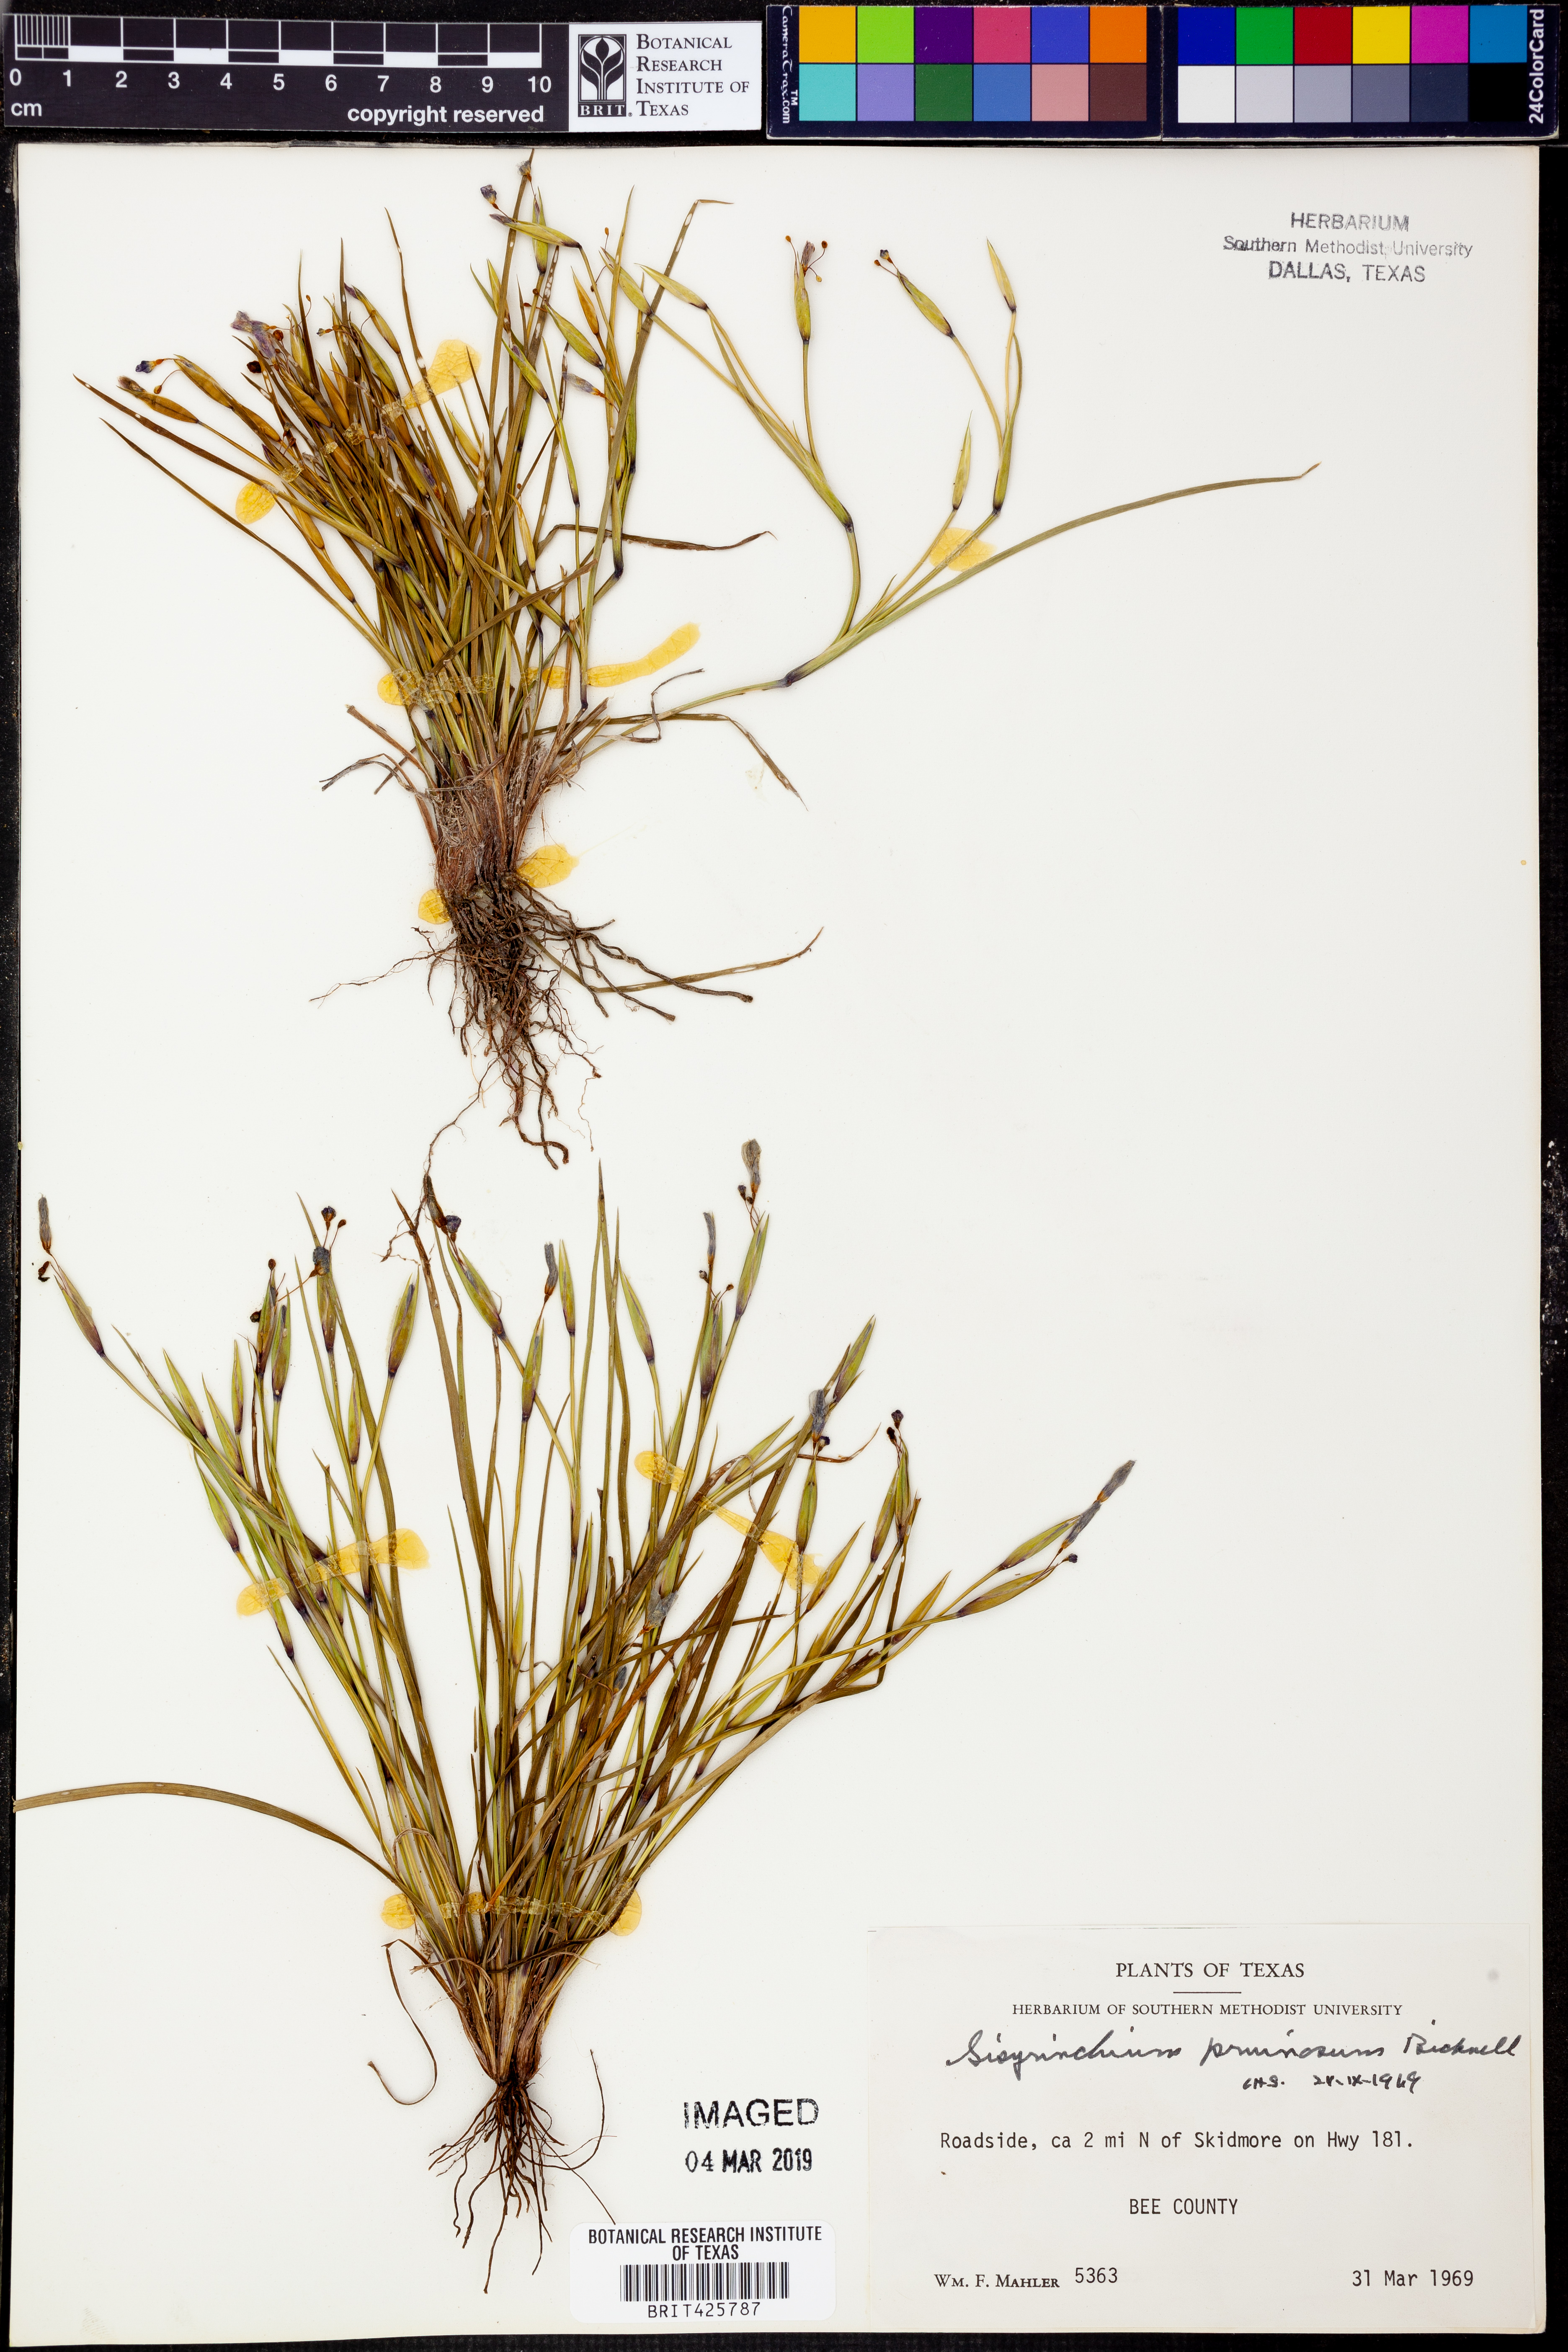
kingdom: Plantae
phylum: Tracheophyta
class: Liliopsida
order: Asparagales
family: Iridaceae
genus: Sisyrinchium
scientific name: Sisyrinchium pruinosum
